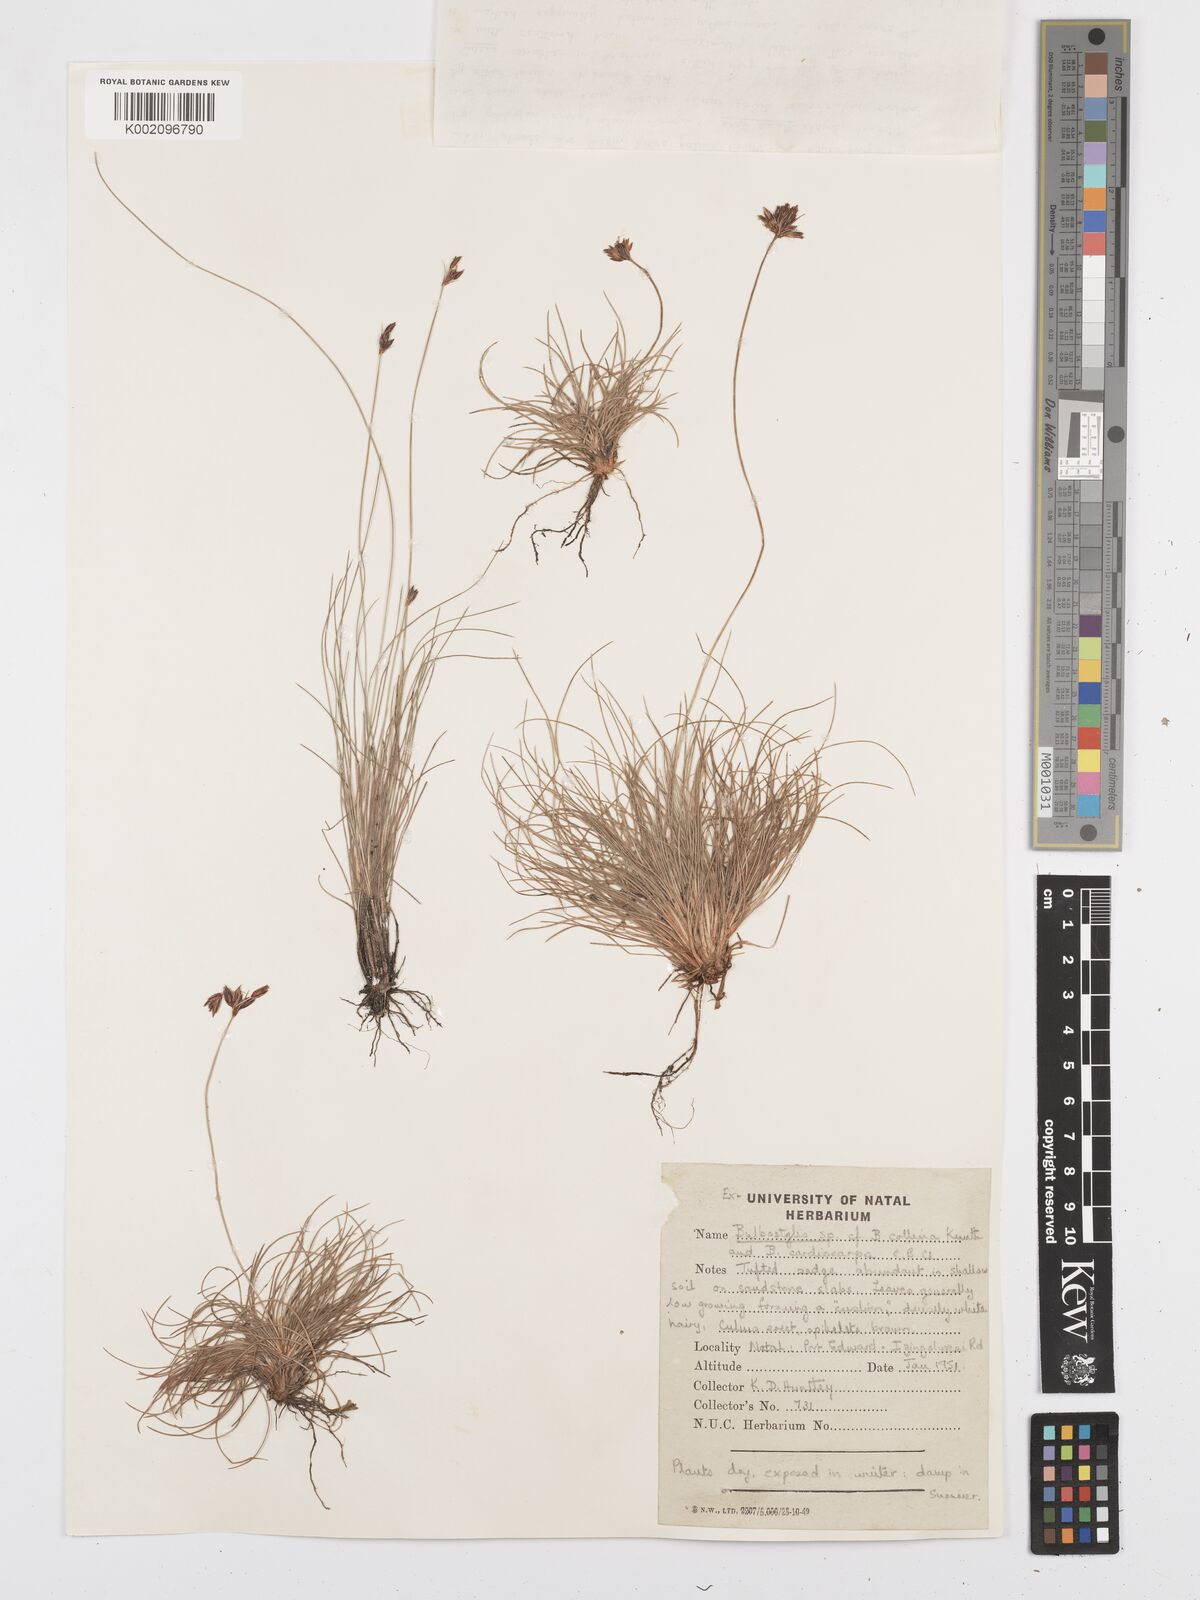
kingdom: Plantae
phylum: Tracheophyta
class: Liliopsida
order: Poales
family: Cyperaceae
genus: Bulbostylis
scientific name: Bulbostylis
